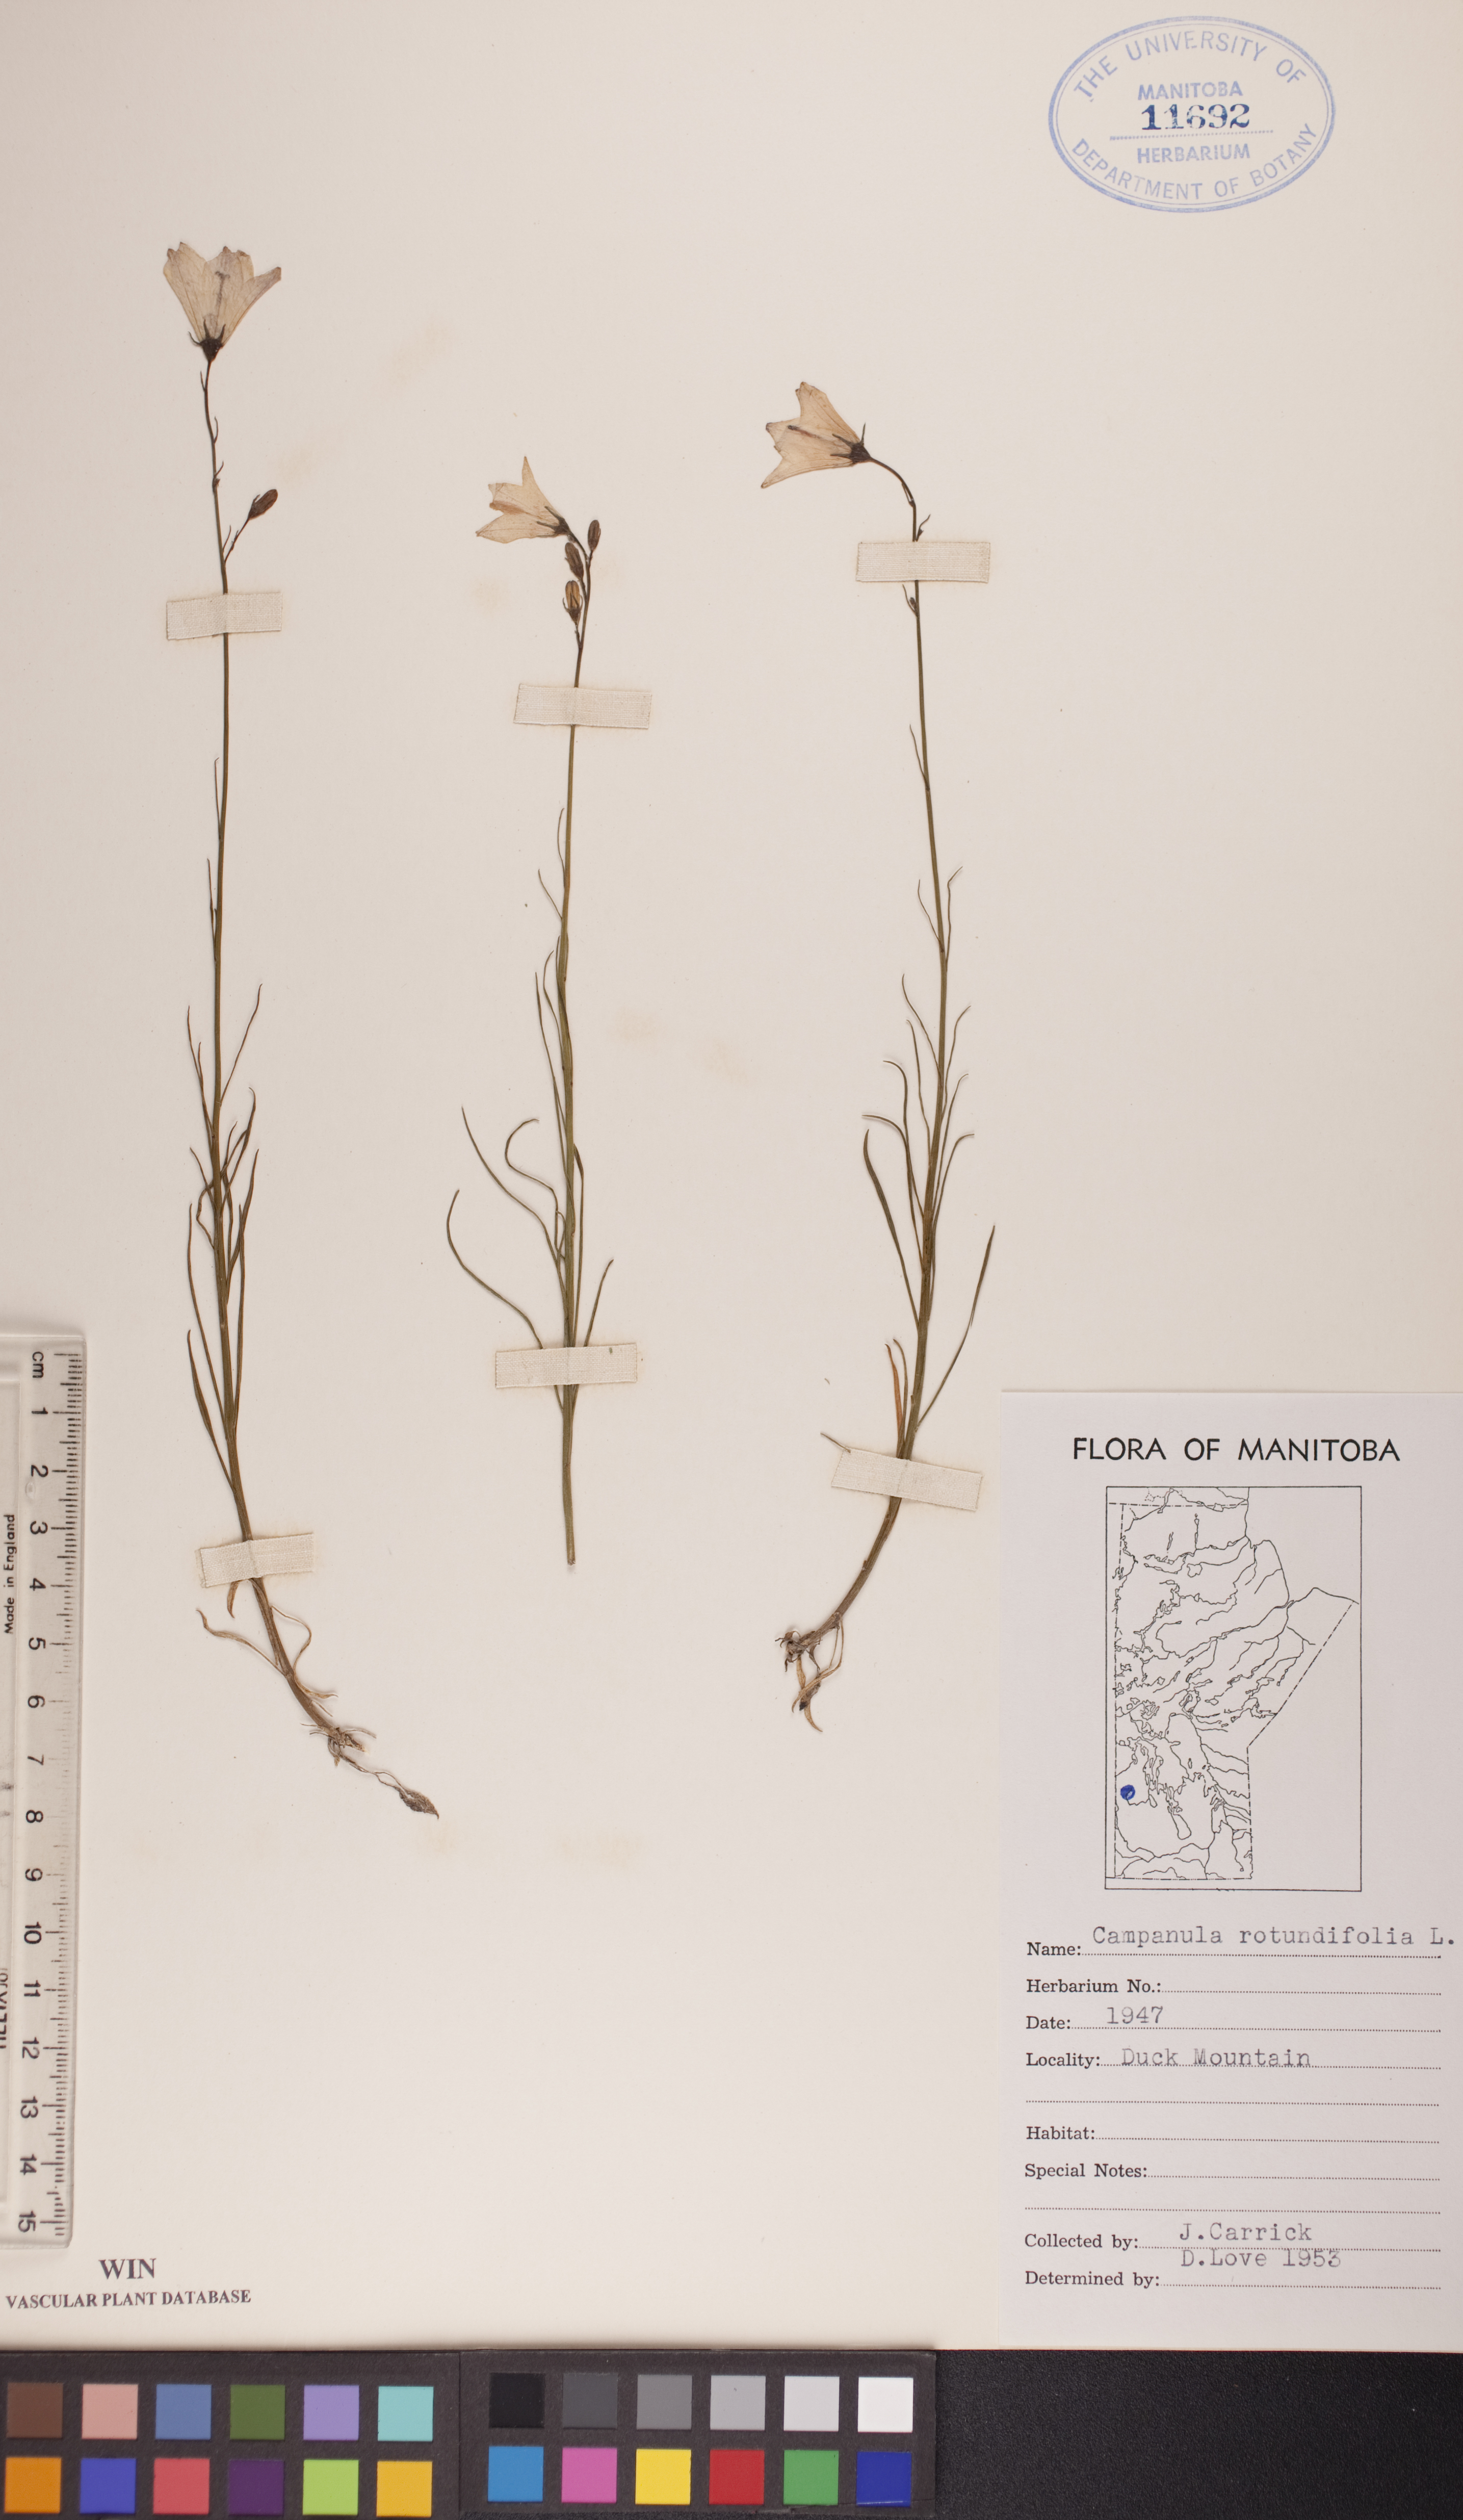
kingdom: Plantae
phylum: Tracheophyta
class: Magnoliopsida
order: Asterales
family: Campanulaceae
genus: Campanula
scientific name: Campanula rotundifolia
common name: Harebell
